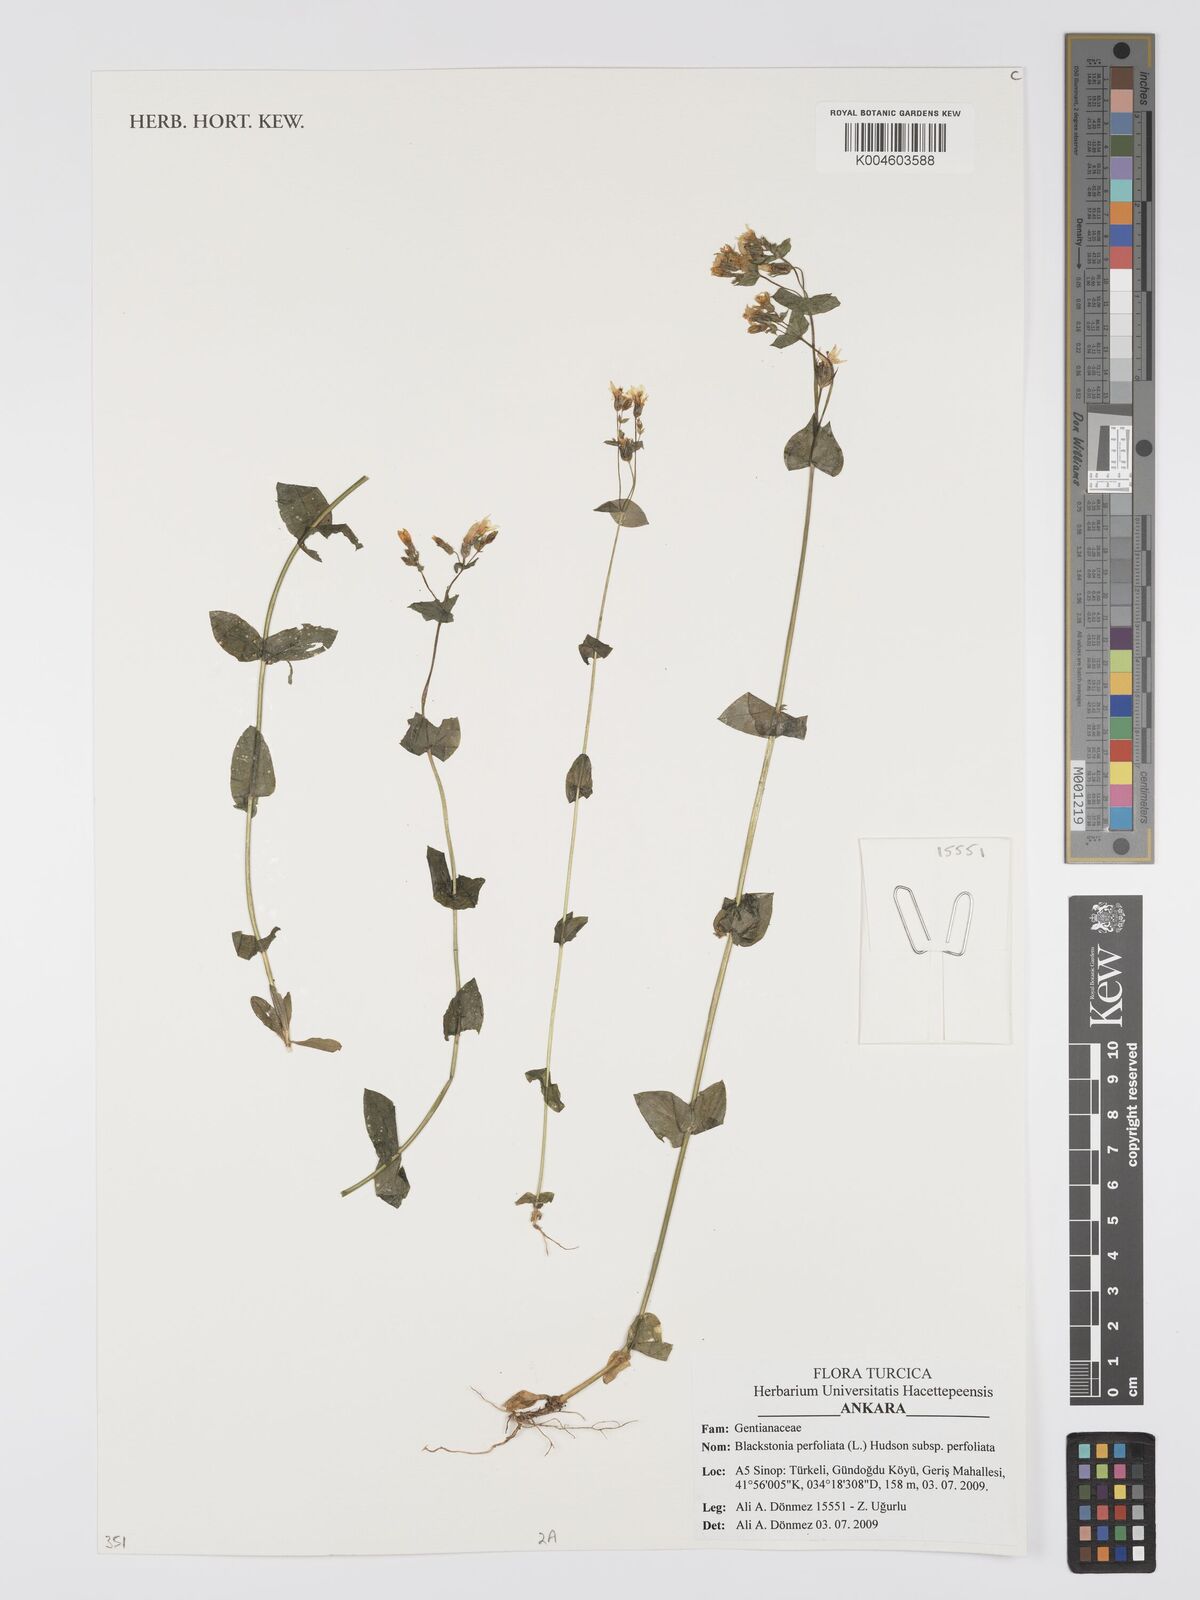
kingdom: Plantae
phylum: Tracheophyta
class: Magnoliopsida
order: Gentianales
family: Gentianaceae
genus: Blackstonia
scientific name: Blackstonia perfoliata
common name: Yellow-wort
